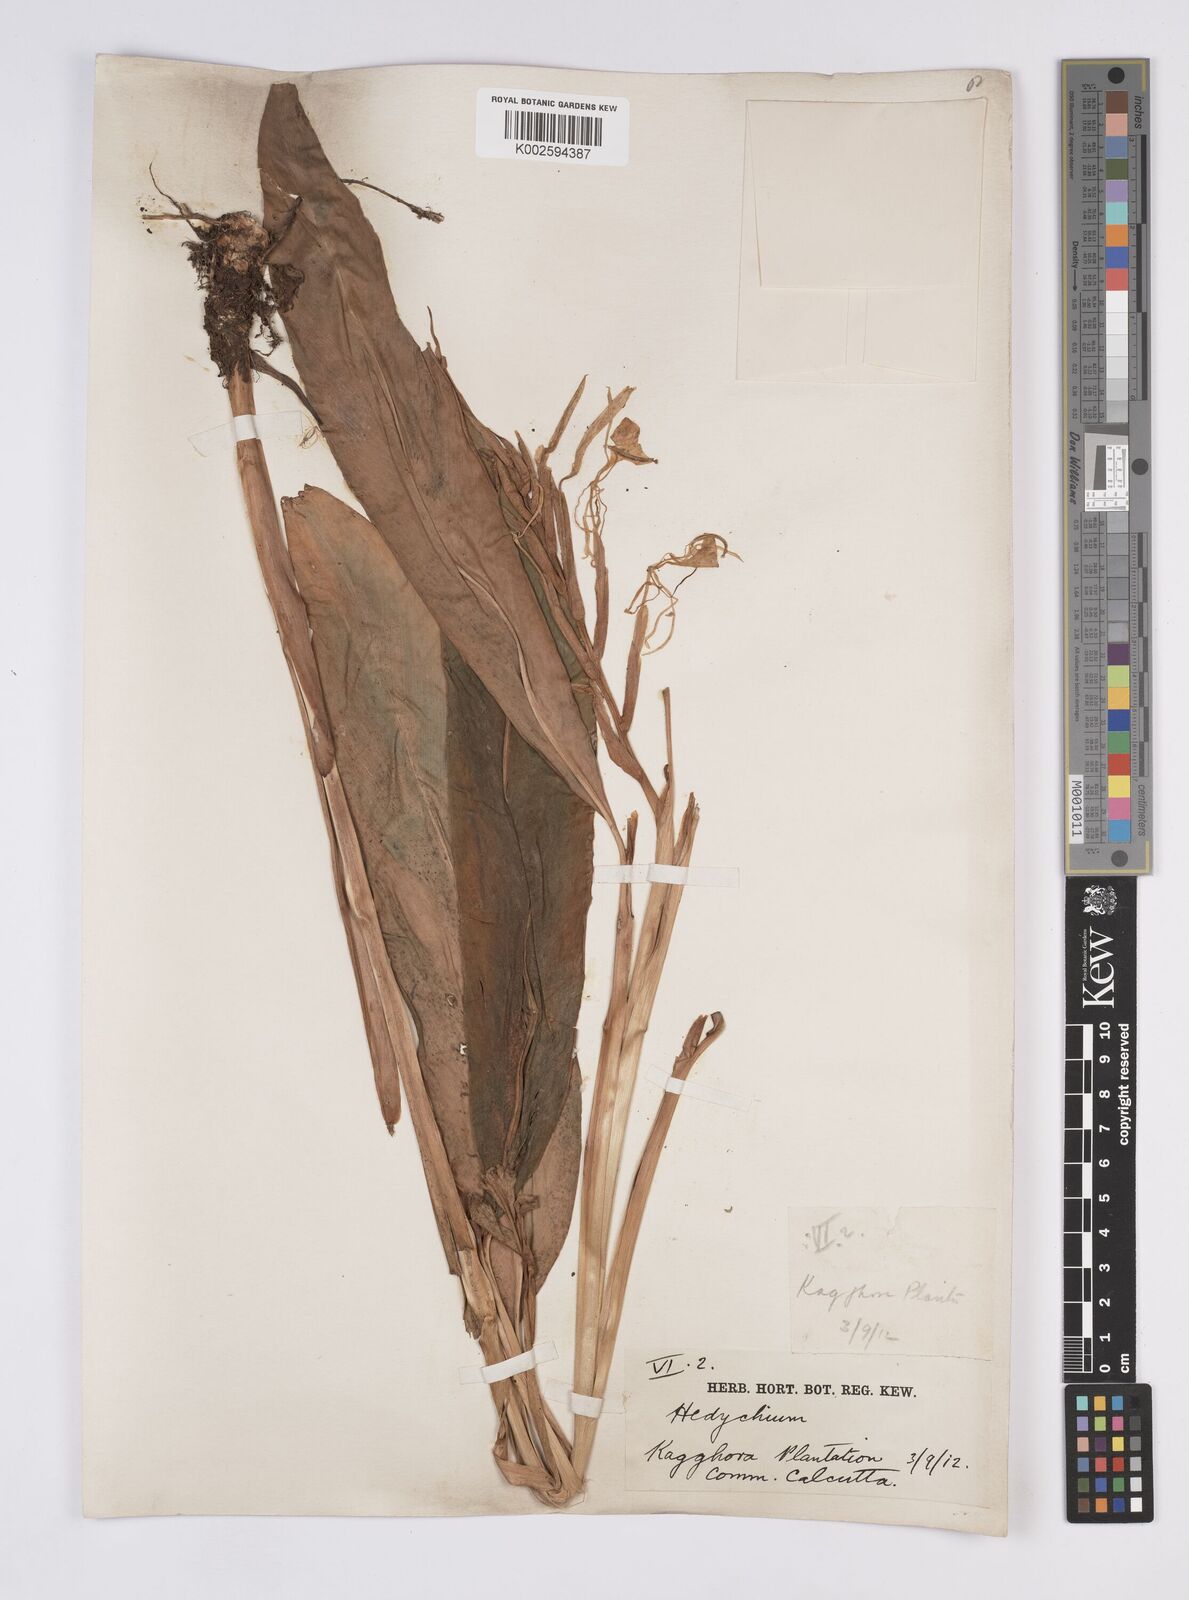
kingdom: Plantae
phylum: Tracheophyta
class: Liliopsida
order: Zingiberales
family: Zingiberaceae
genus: Hedychium
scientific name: Hedychium
